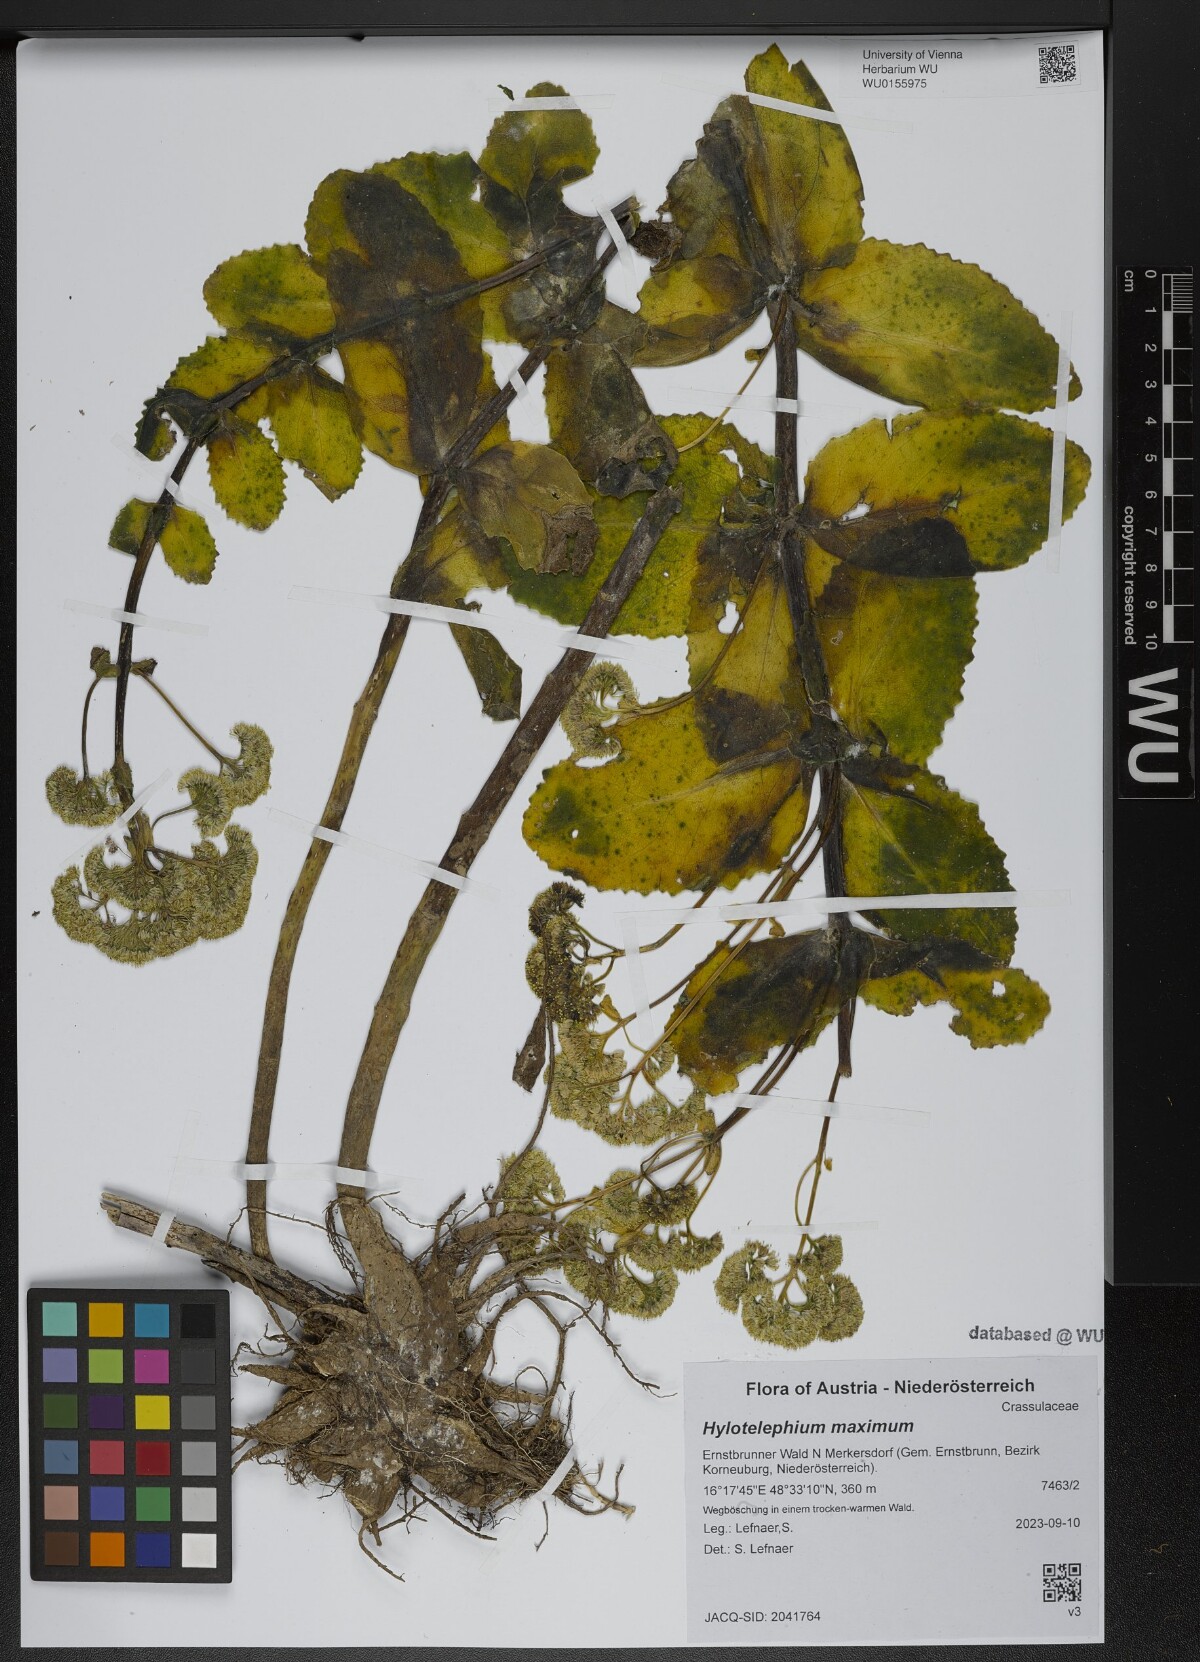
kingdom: Plantae
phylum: Tracheophyta
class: Magnoliopsida
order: Saxifragales
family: Crassulaceae
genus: Hylotelephium
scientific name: Hylotelephium maximum
